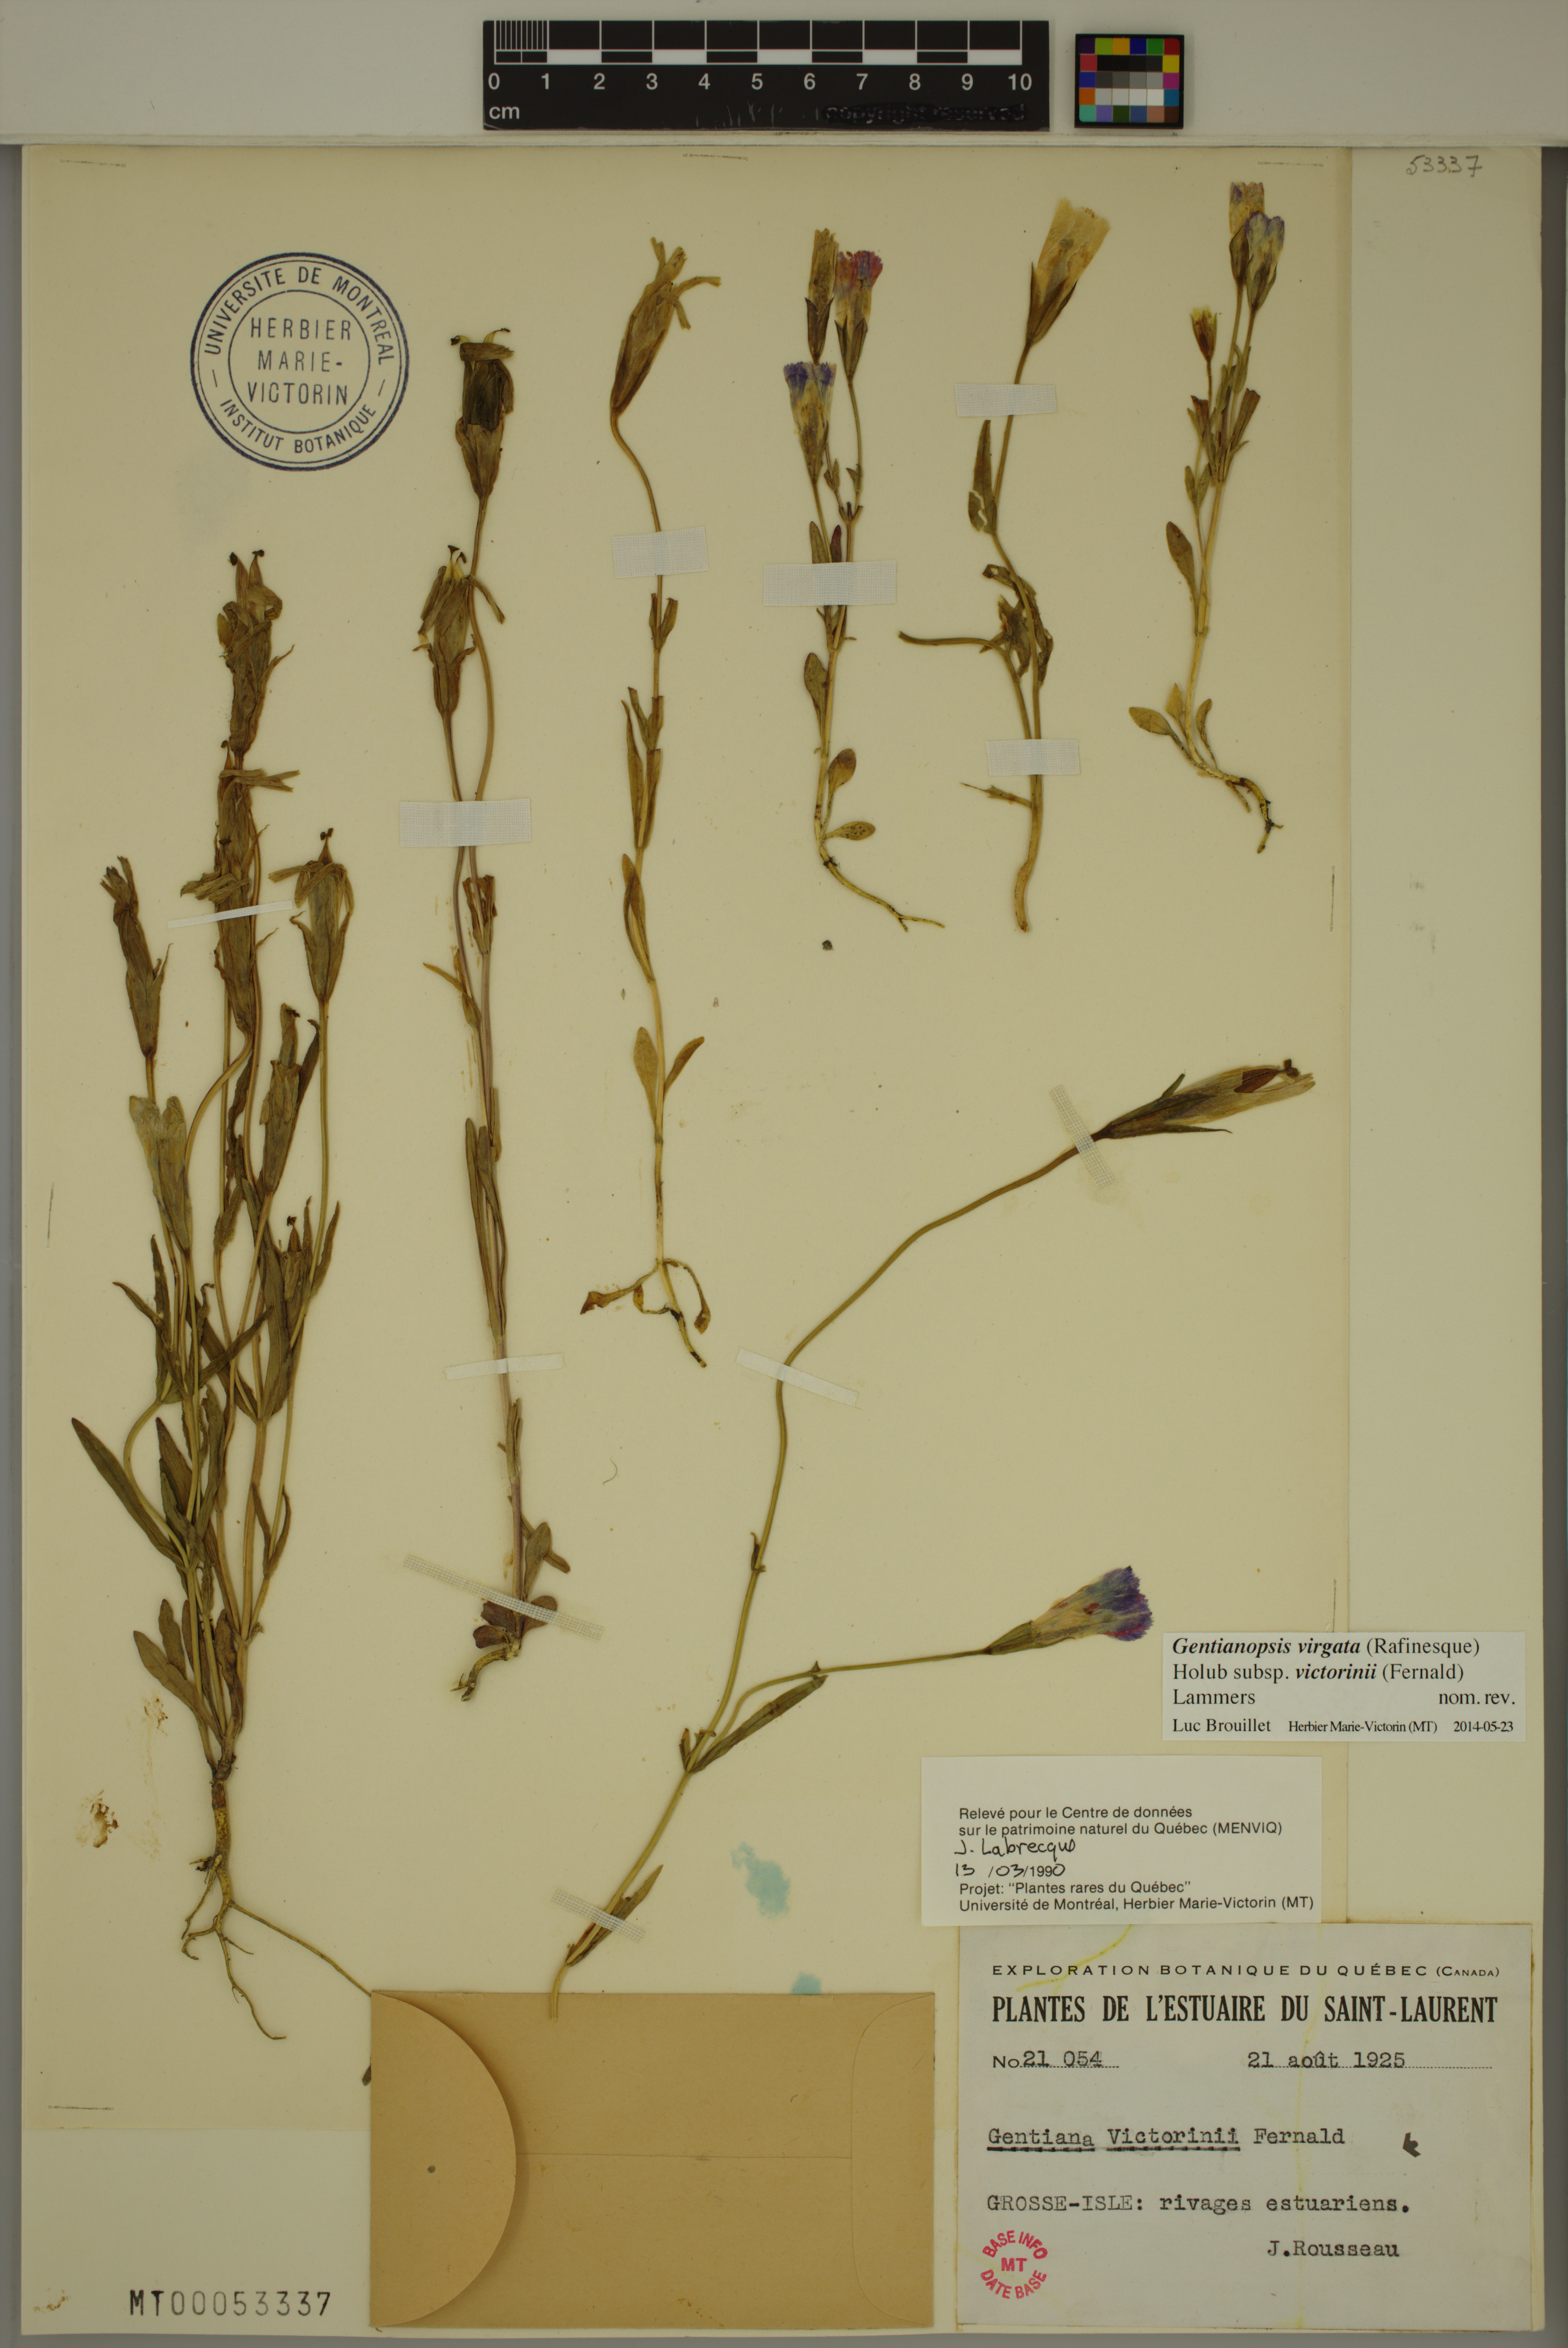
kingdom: Plantae
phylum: Tracheophyta
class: Magnoliopsida
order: Gentianales
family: Gentianaceae
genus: Gentianopsis
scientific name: Gentianopsis victorinii
